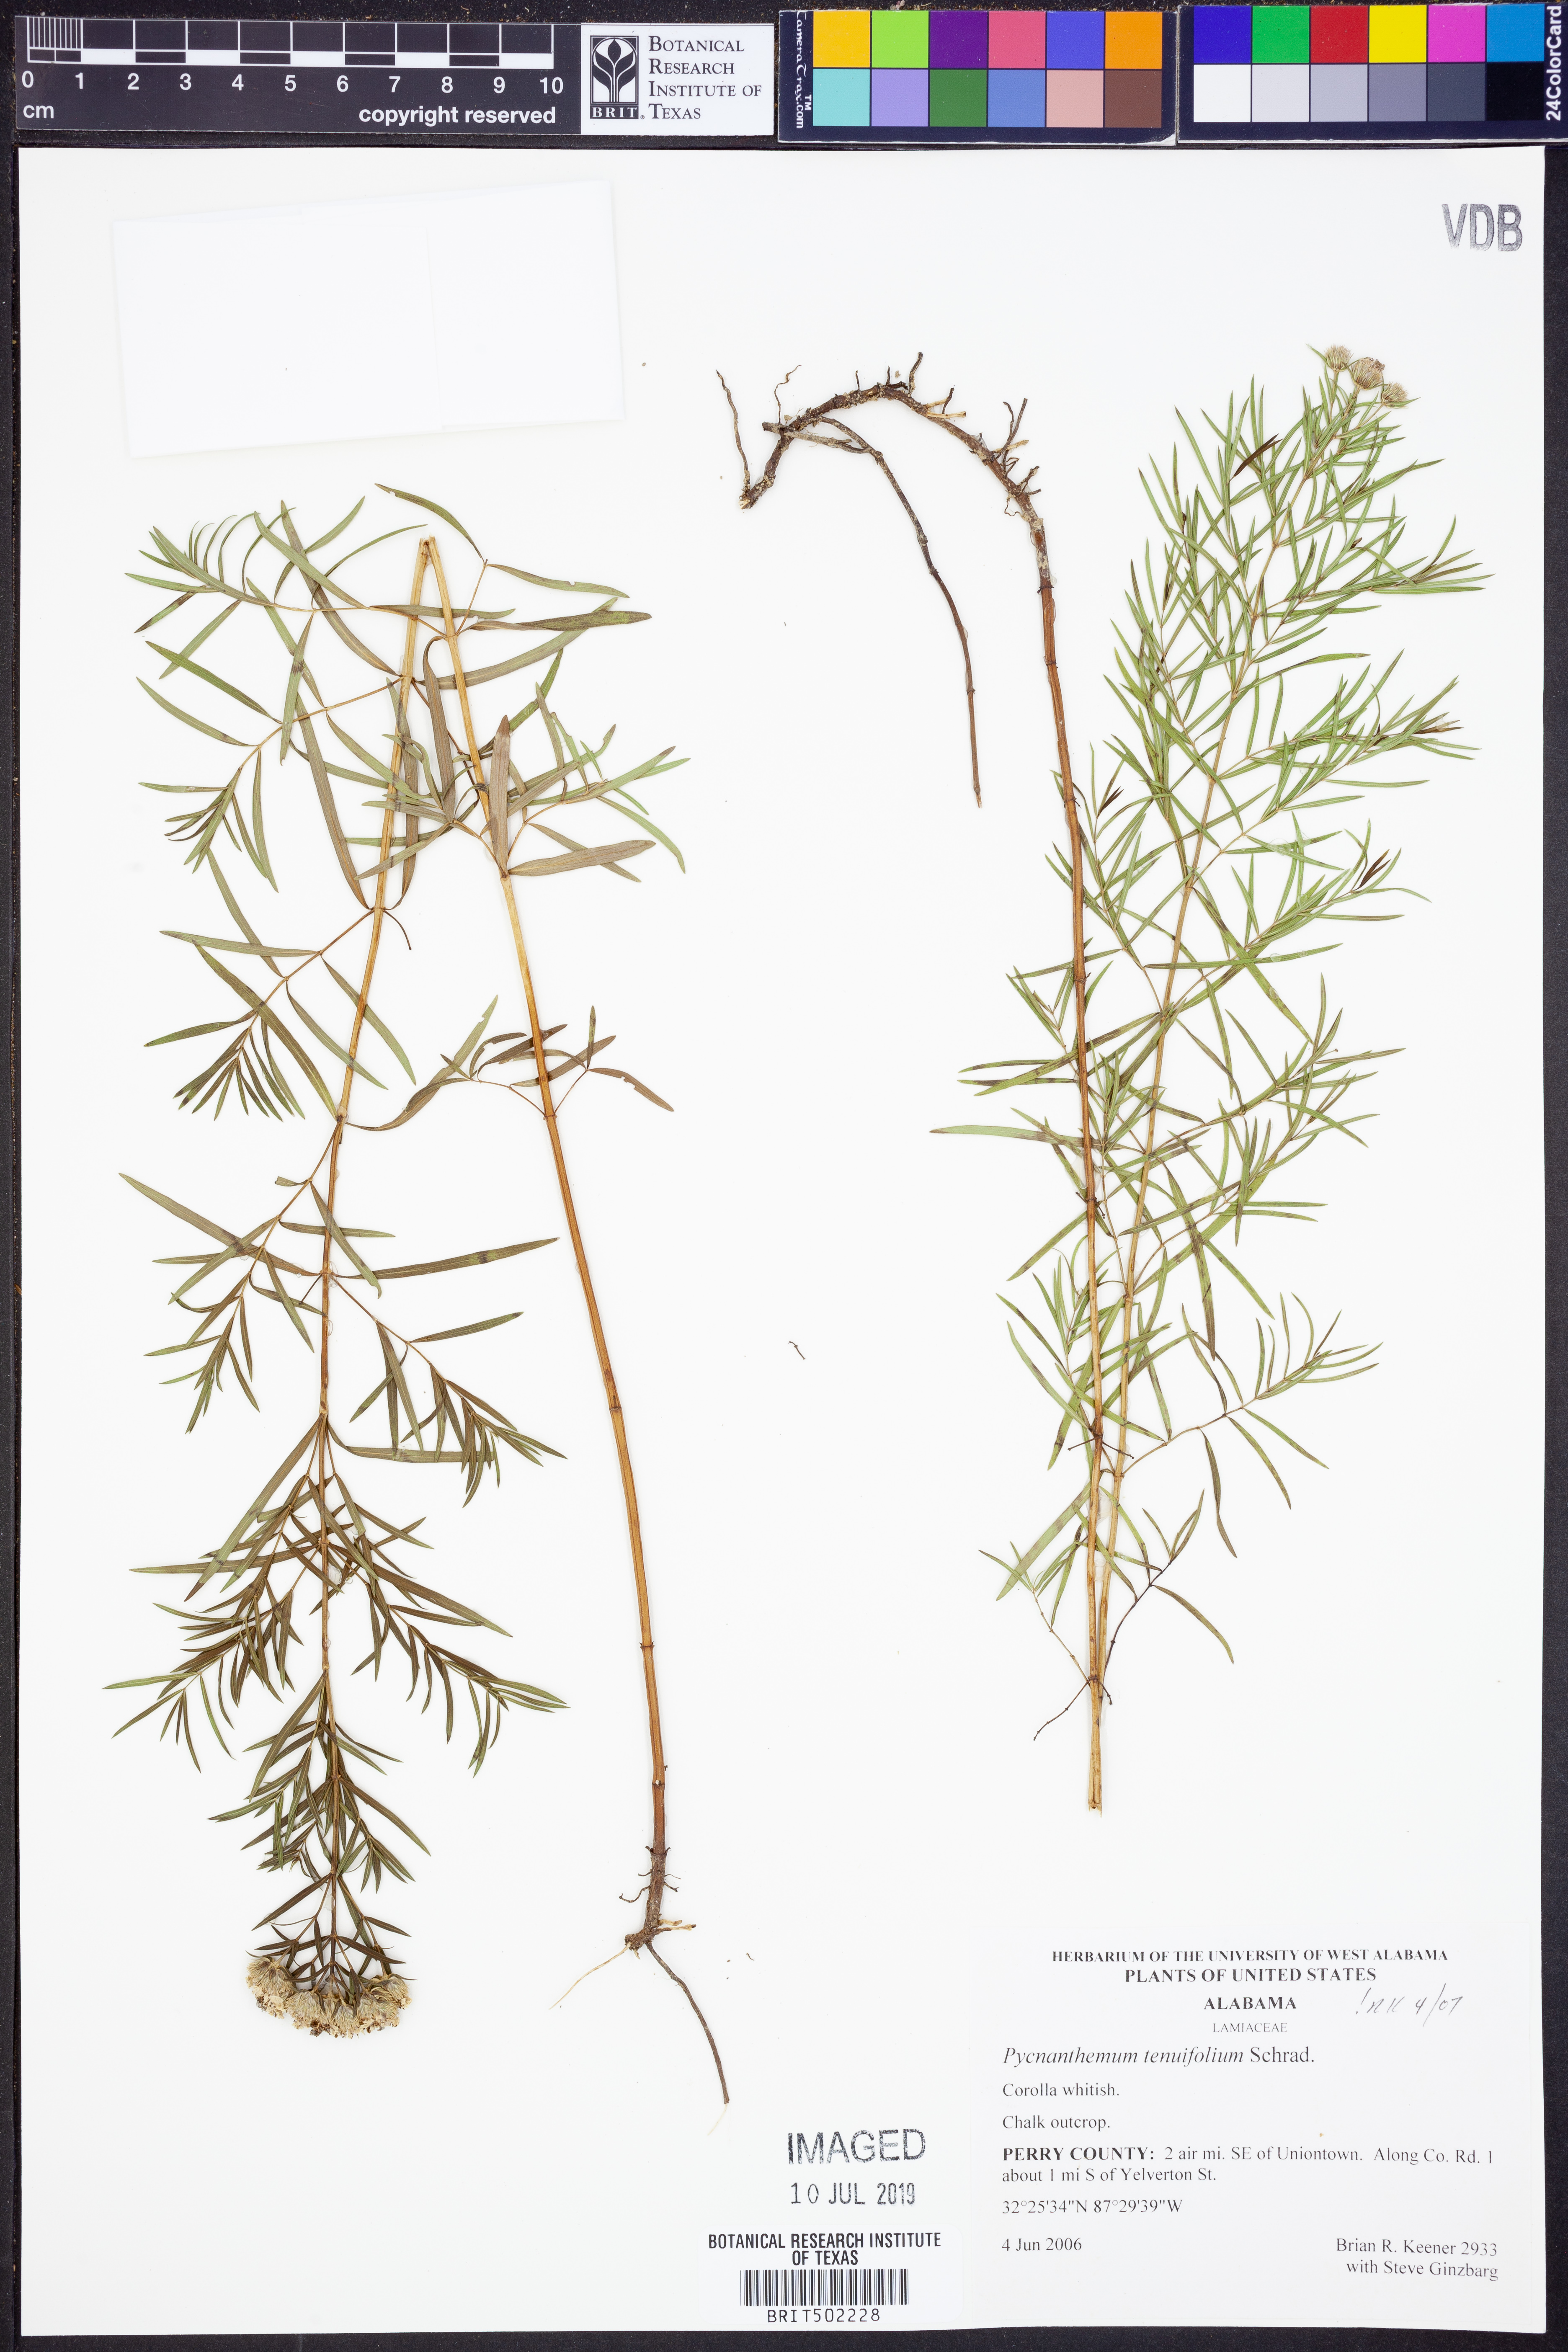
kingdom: Plantae
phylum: Tracheophyta
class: Magnoliopsida
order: Lamiales
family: Lamiaceae
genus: Pycnanthemum
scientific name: Pycnanthemum tenuifolium
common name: Narrow-leaf mountain-mint
